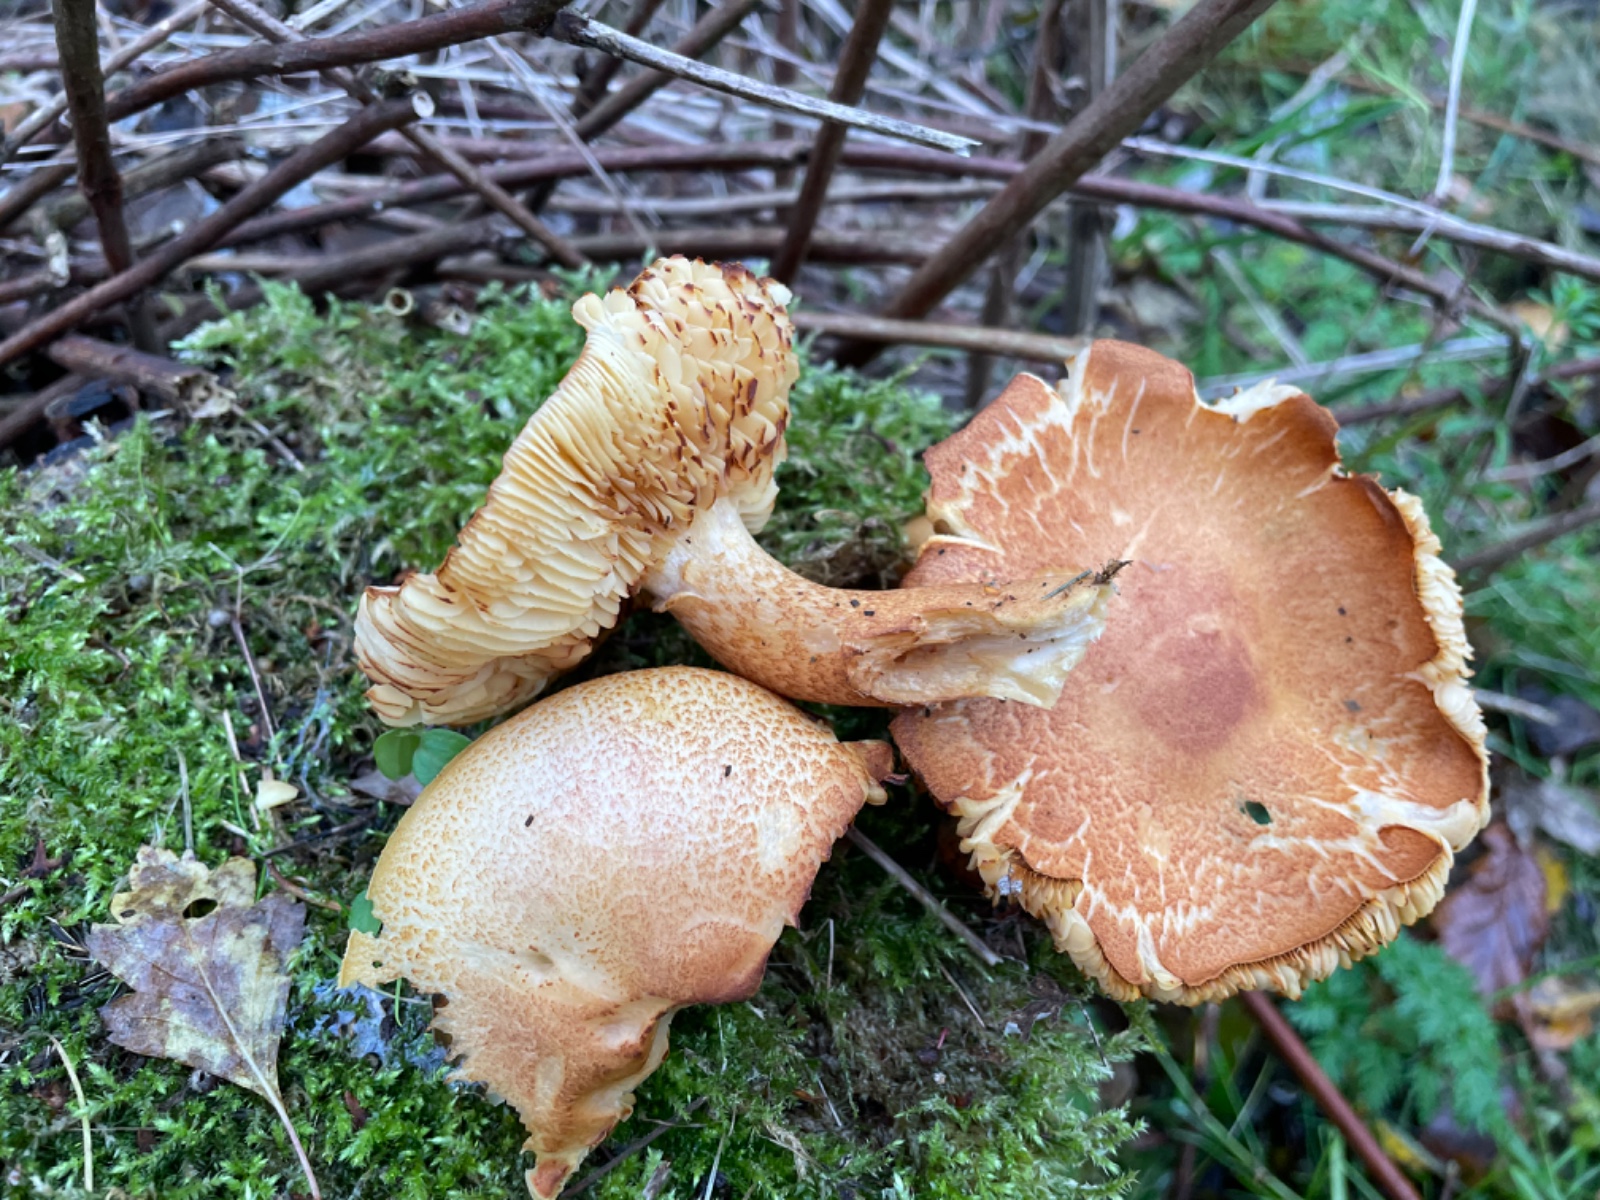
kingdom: Fungi
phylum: Basidiomycota
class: Agaricomycetes
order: Agaricales
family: Tricholomataceae
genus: Tricholomopsis
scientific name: Tricholomopsis rutilans
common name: purpur-væbnerhat
